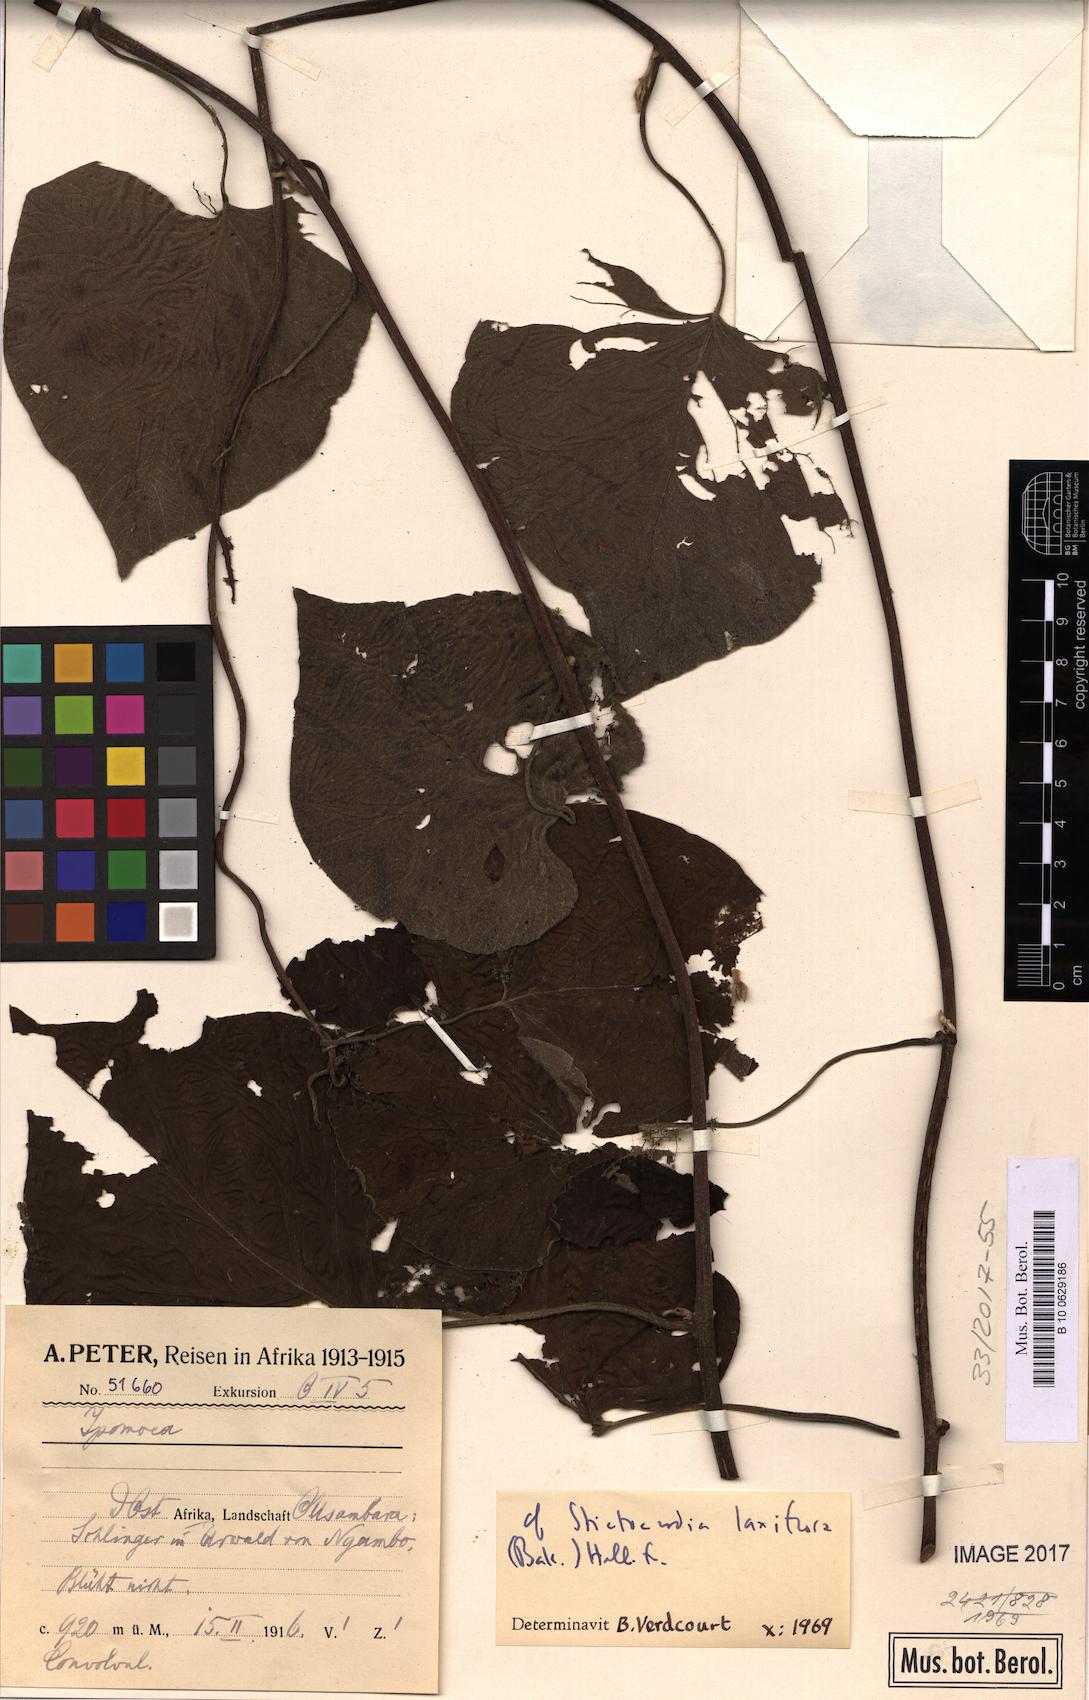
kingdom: Plantae
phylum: Tracheophyta
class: Magnoliopsida
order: Solanales
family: Convolvulaceae
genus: Stictocardia
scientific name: Stictocardia laxiflora
